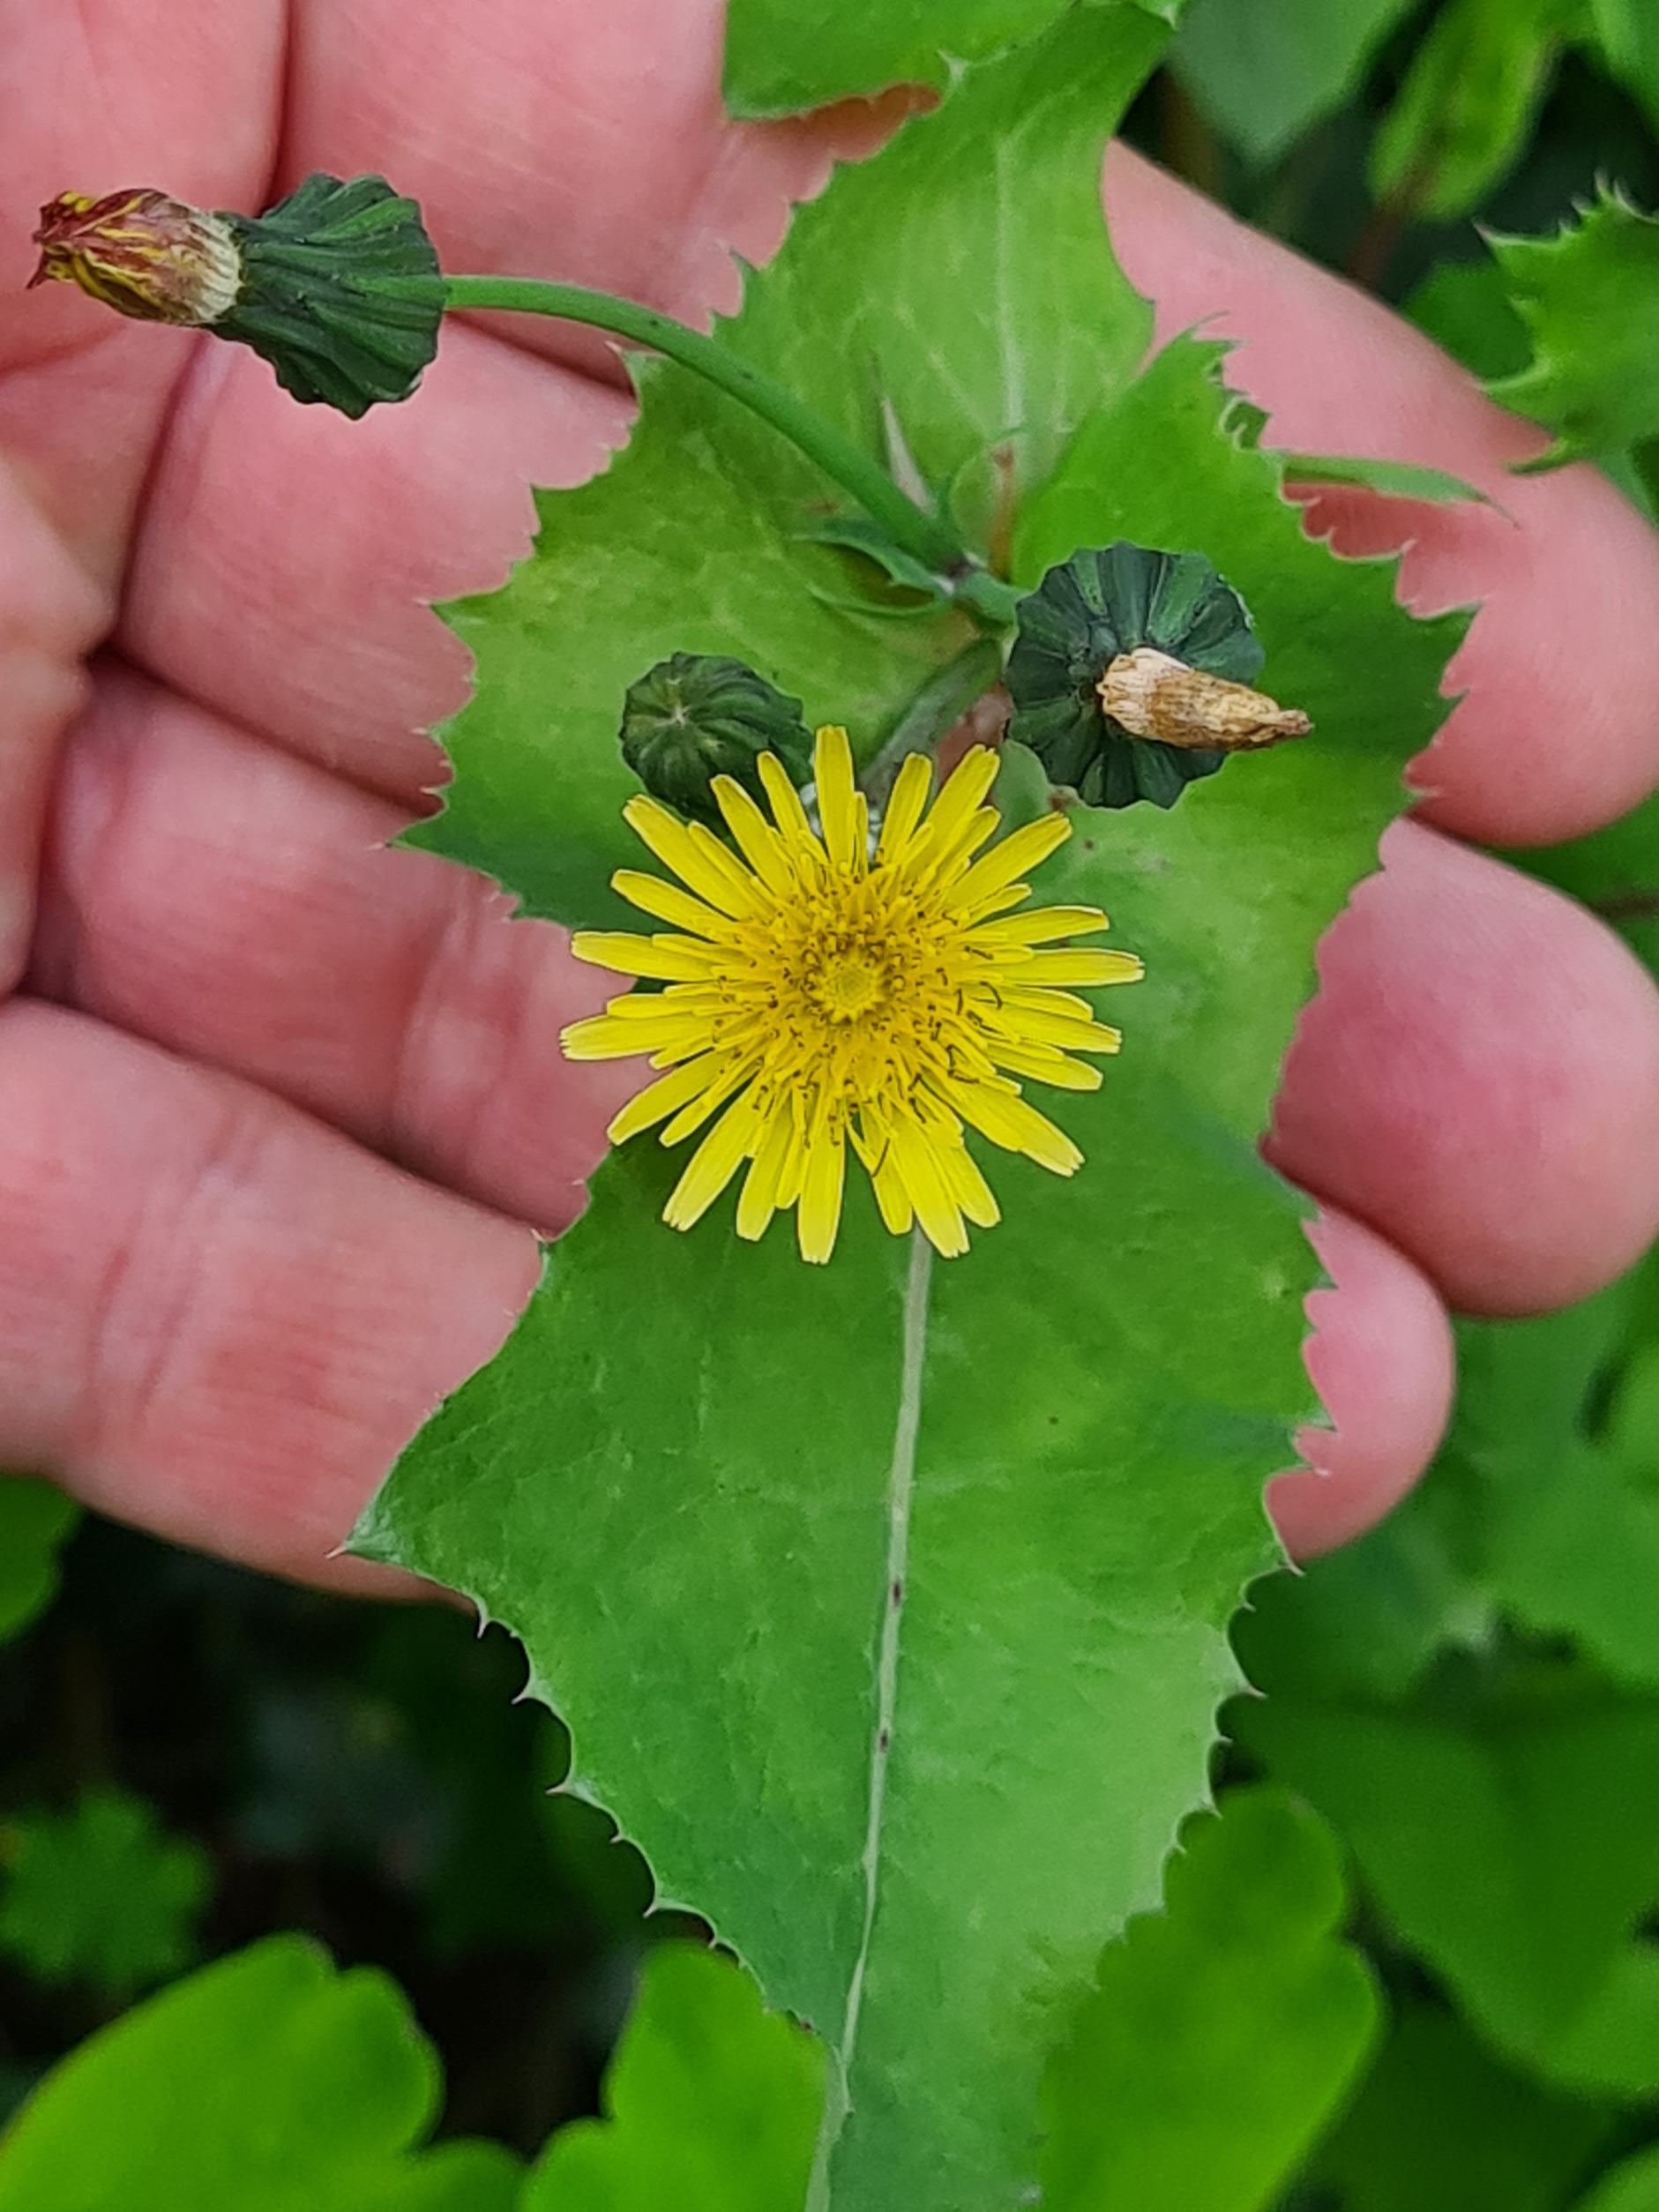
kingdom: Plantae
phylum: Tracheophyta
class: Magnoliopsida
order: Asterales
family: Asteraceae
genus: Sonchus
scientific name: Sonchus oleraceus
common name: Almindelig svinemælk
